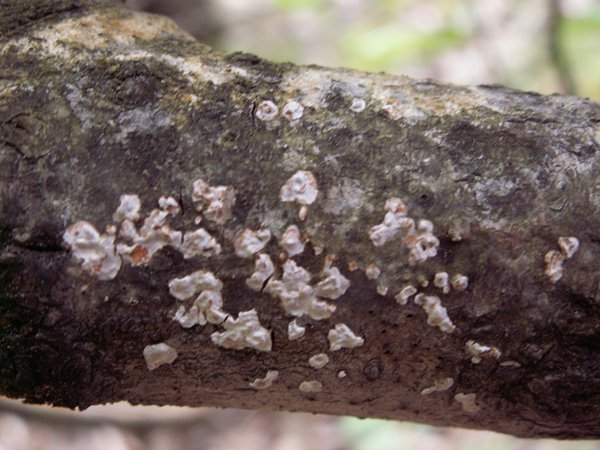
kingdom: Fungi
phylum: Basidiomycota
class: Agaricomycetes
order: Russulales
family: Peniophoraceae
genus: Peniophora
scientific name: Peniophora polygonia
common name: polygon-voksskind
